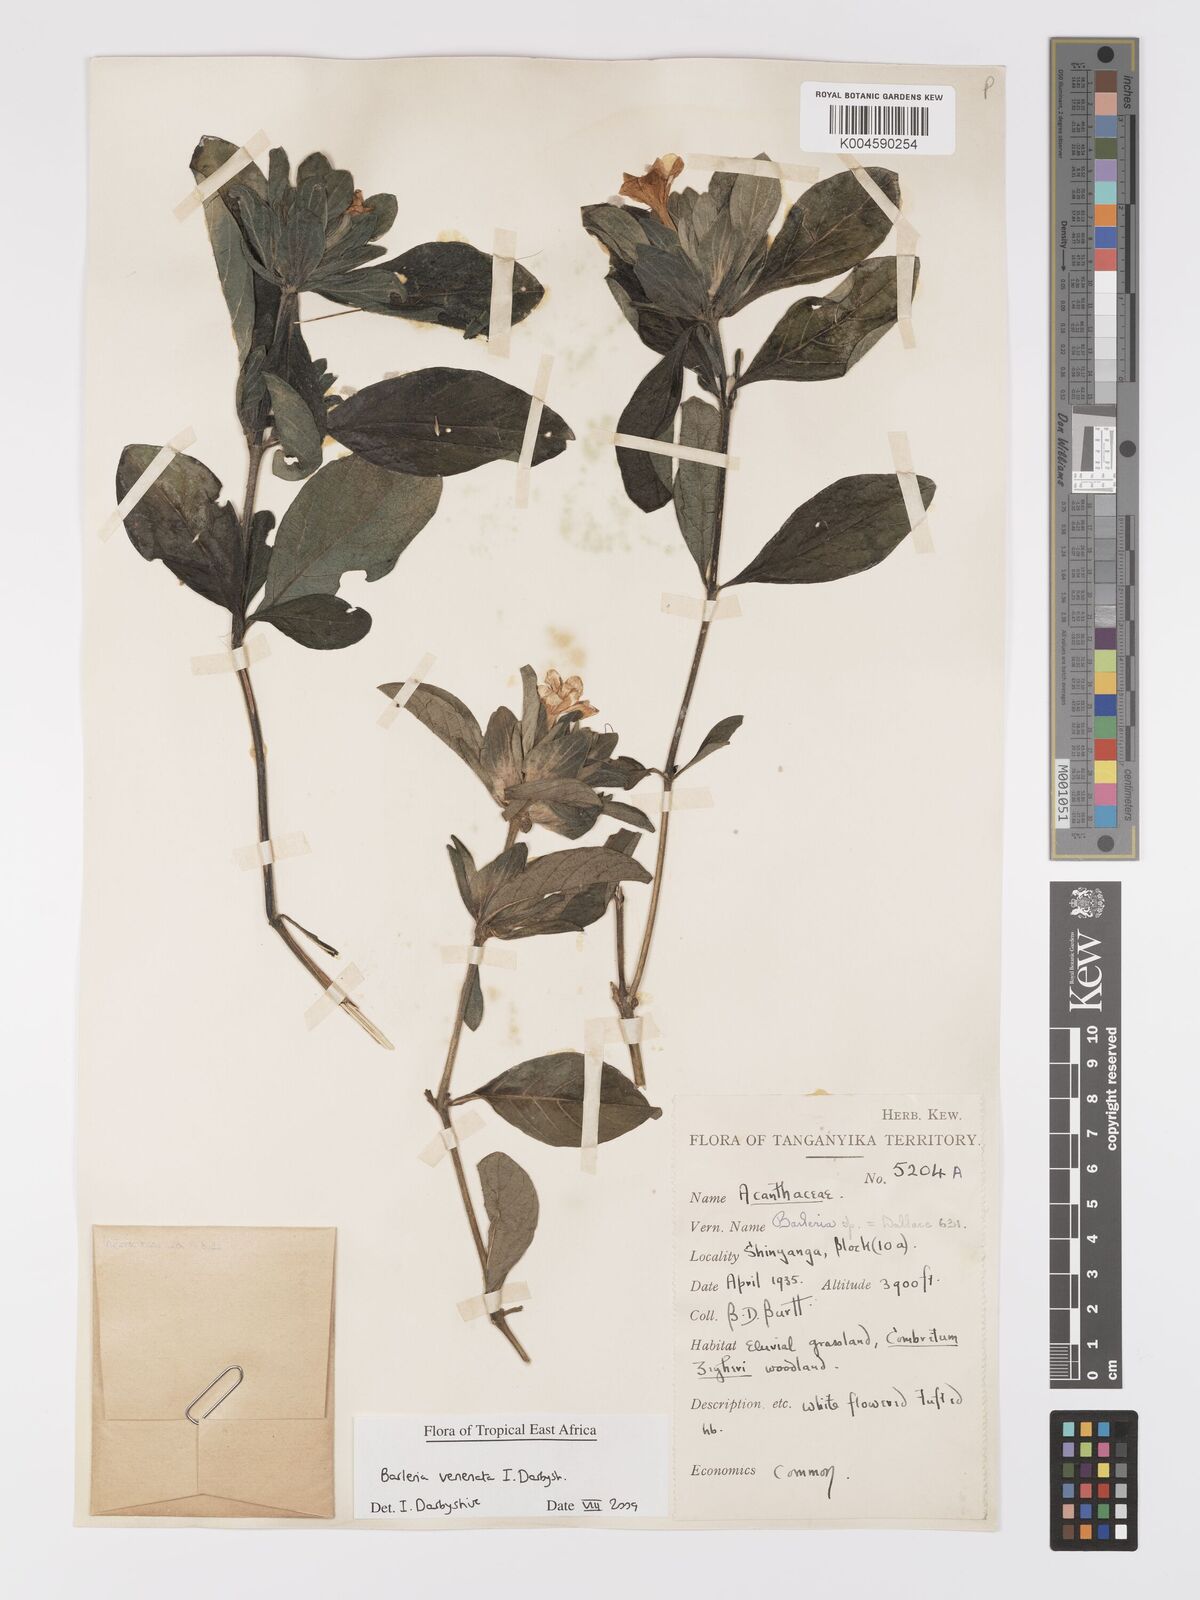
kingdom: Plantae
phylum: Tracheophyta
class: Magnoliopsida
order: Lamiales
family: Acanthaceae
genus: Barleria
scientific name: Barleria venenata
